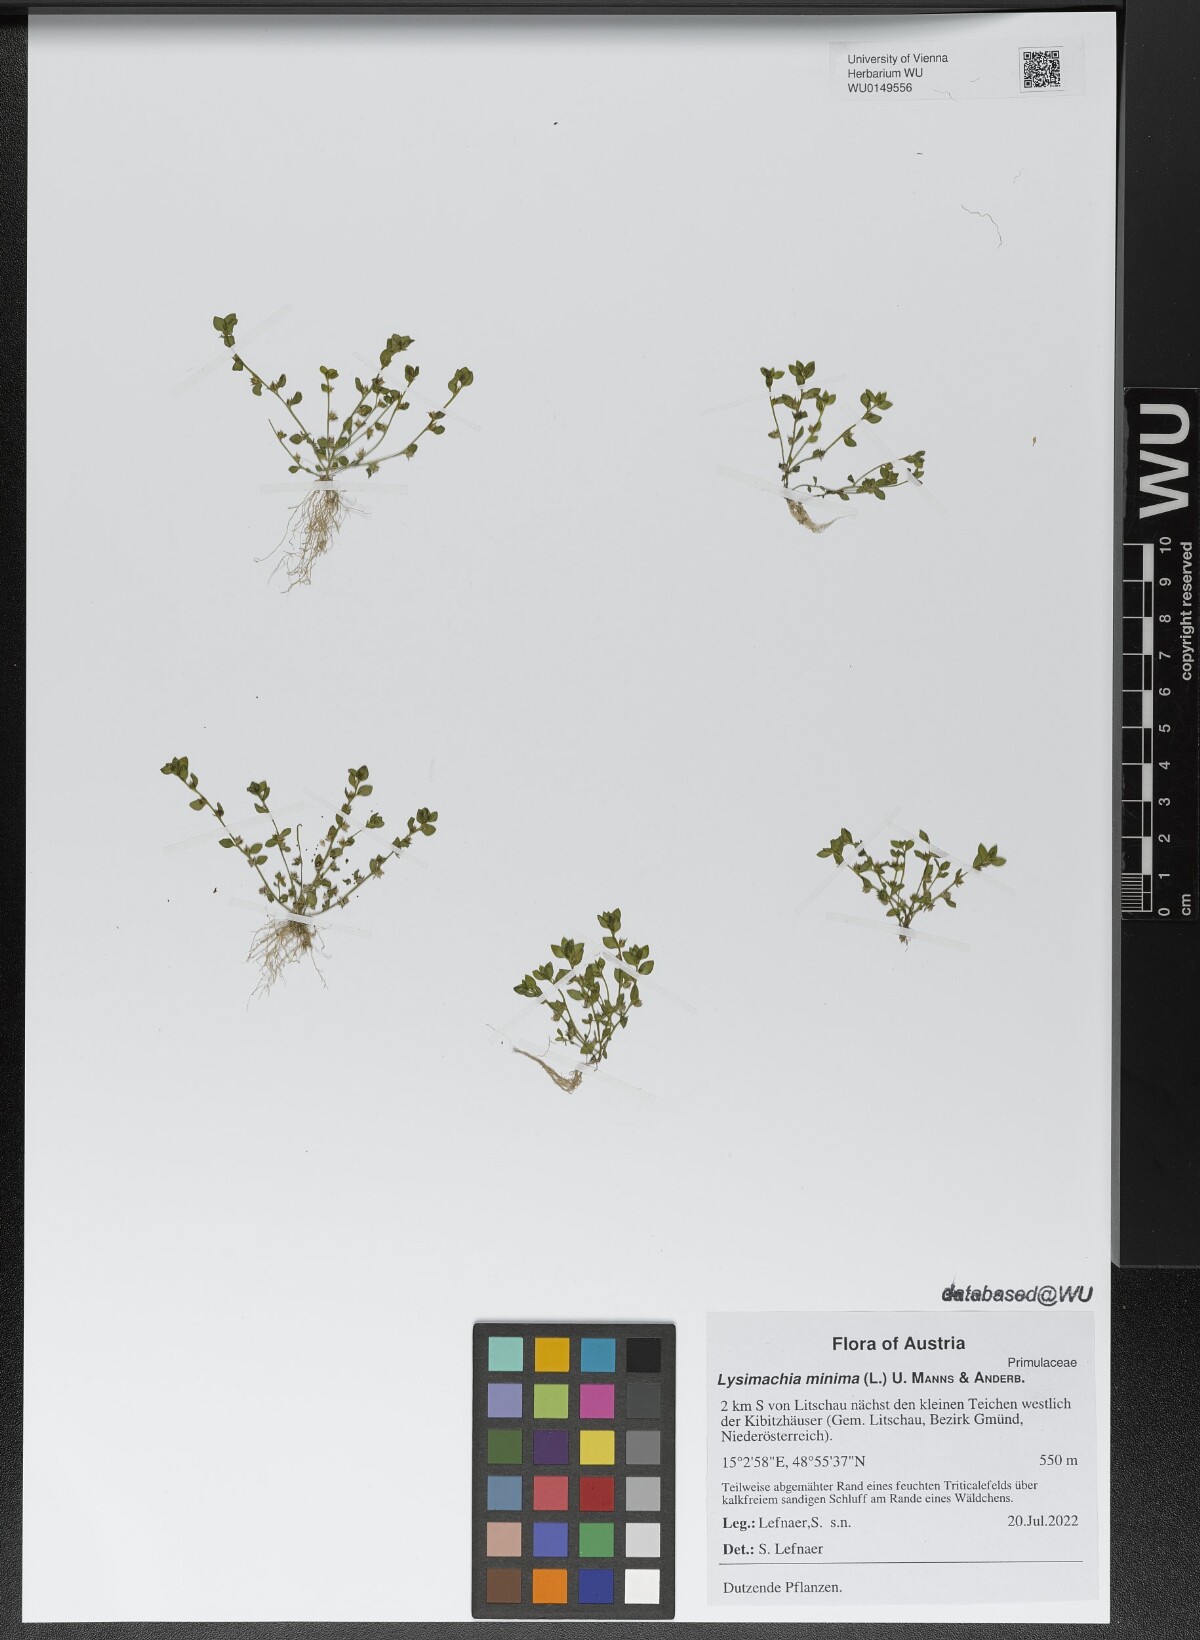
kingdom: Plantae
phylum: Tracheophyta
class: Magnoliopsida
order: Ericales
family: Primulaceae
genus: Lysimachia
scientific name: Lysimachia minima
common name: Chaffweed
